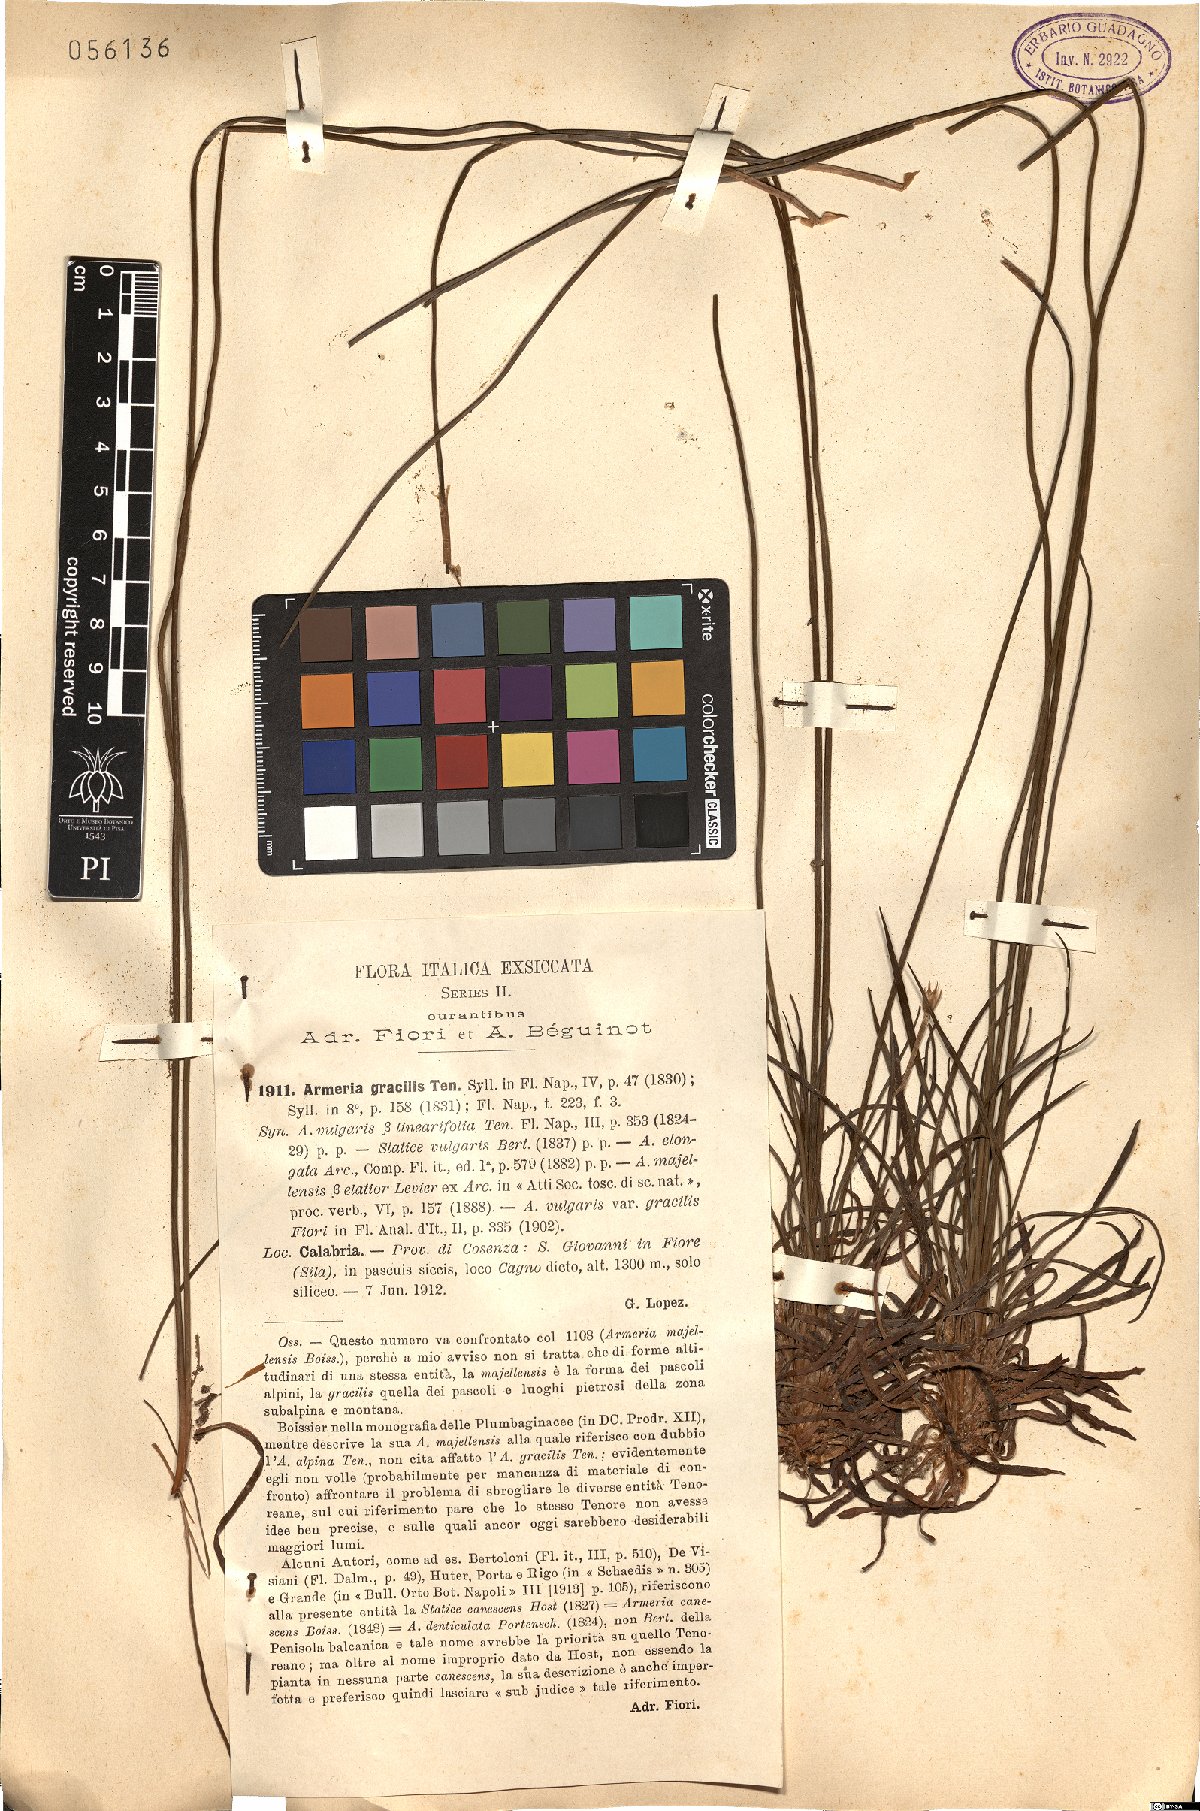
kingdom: Plantae
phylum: Tracheophyta
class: Magnoliopsida
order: Caryophyllales
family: Plumbaginaceae
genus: Armeria
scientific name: Armeria nebrodensis
